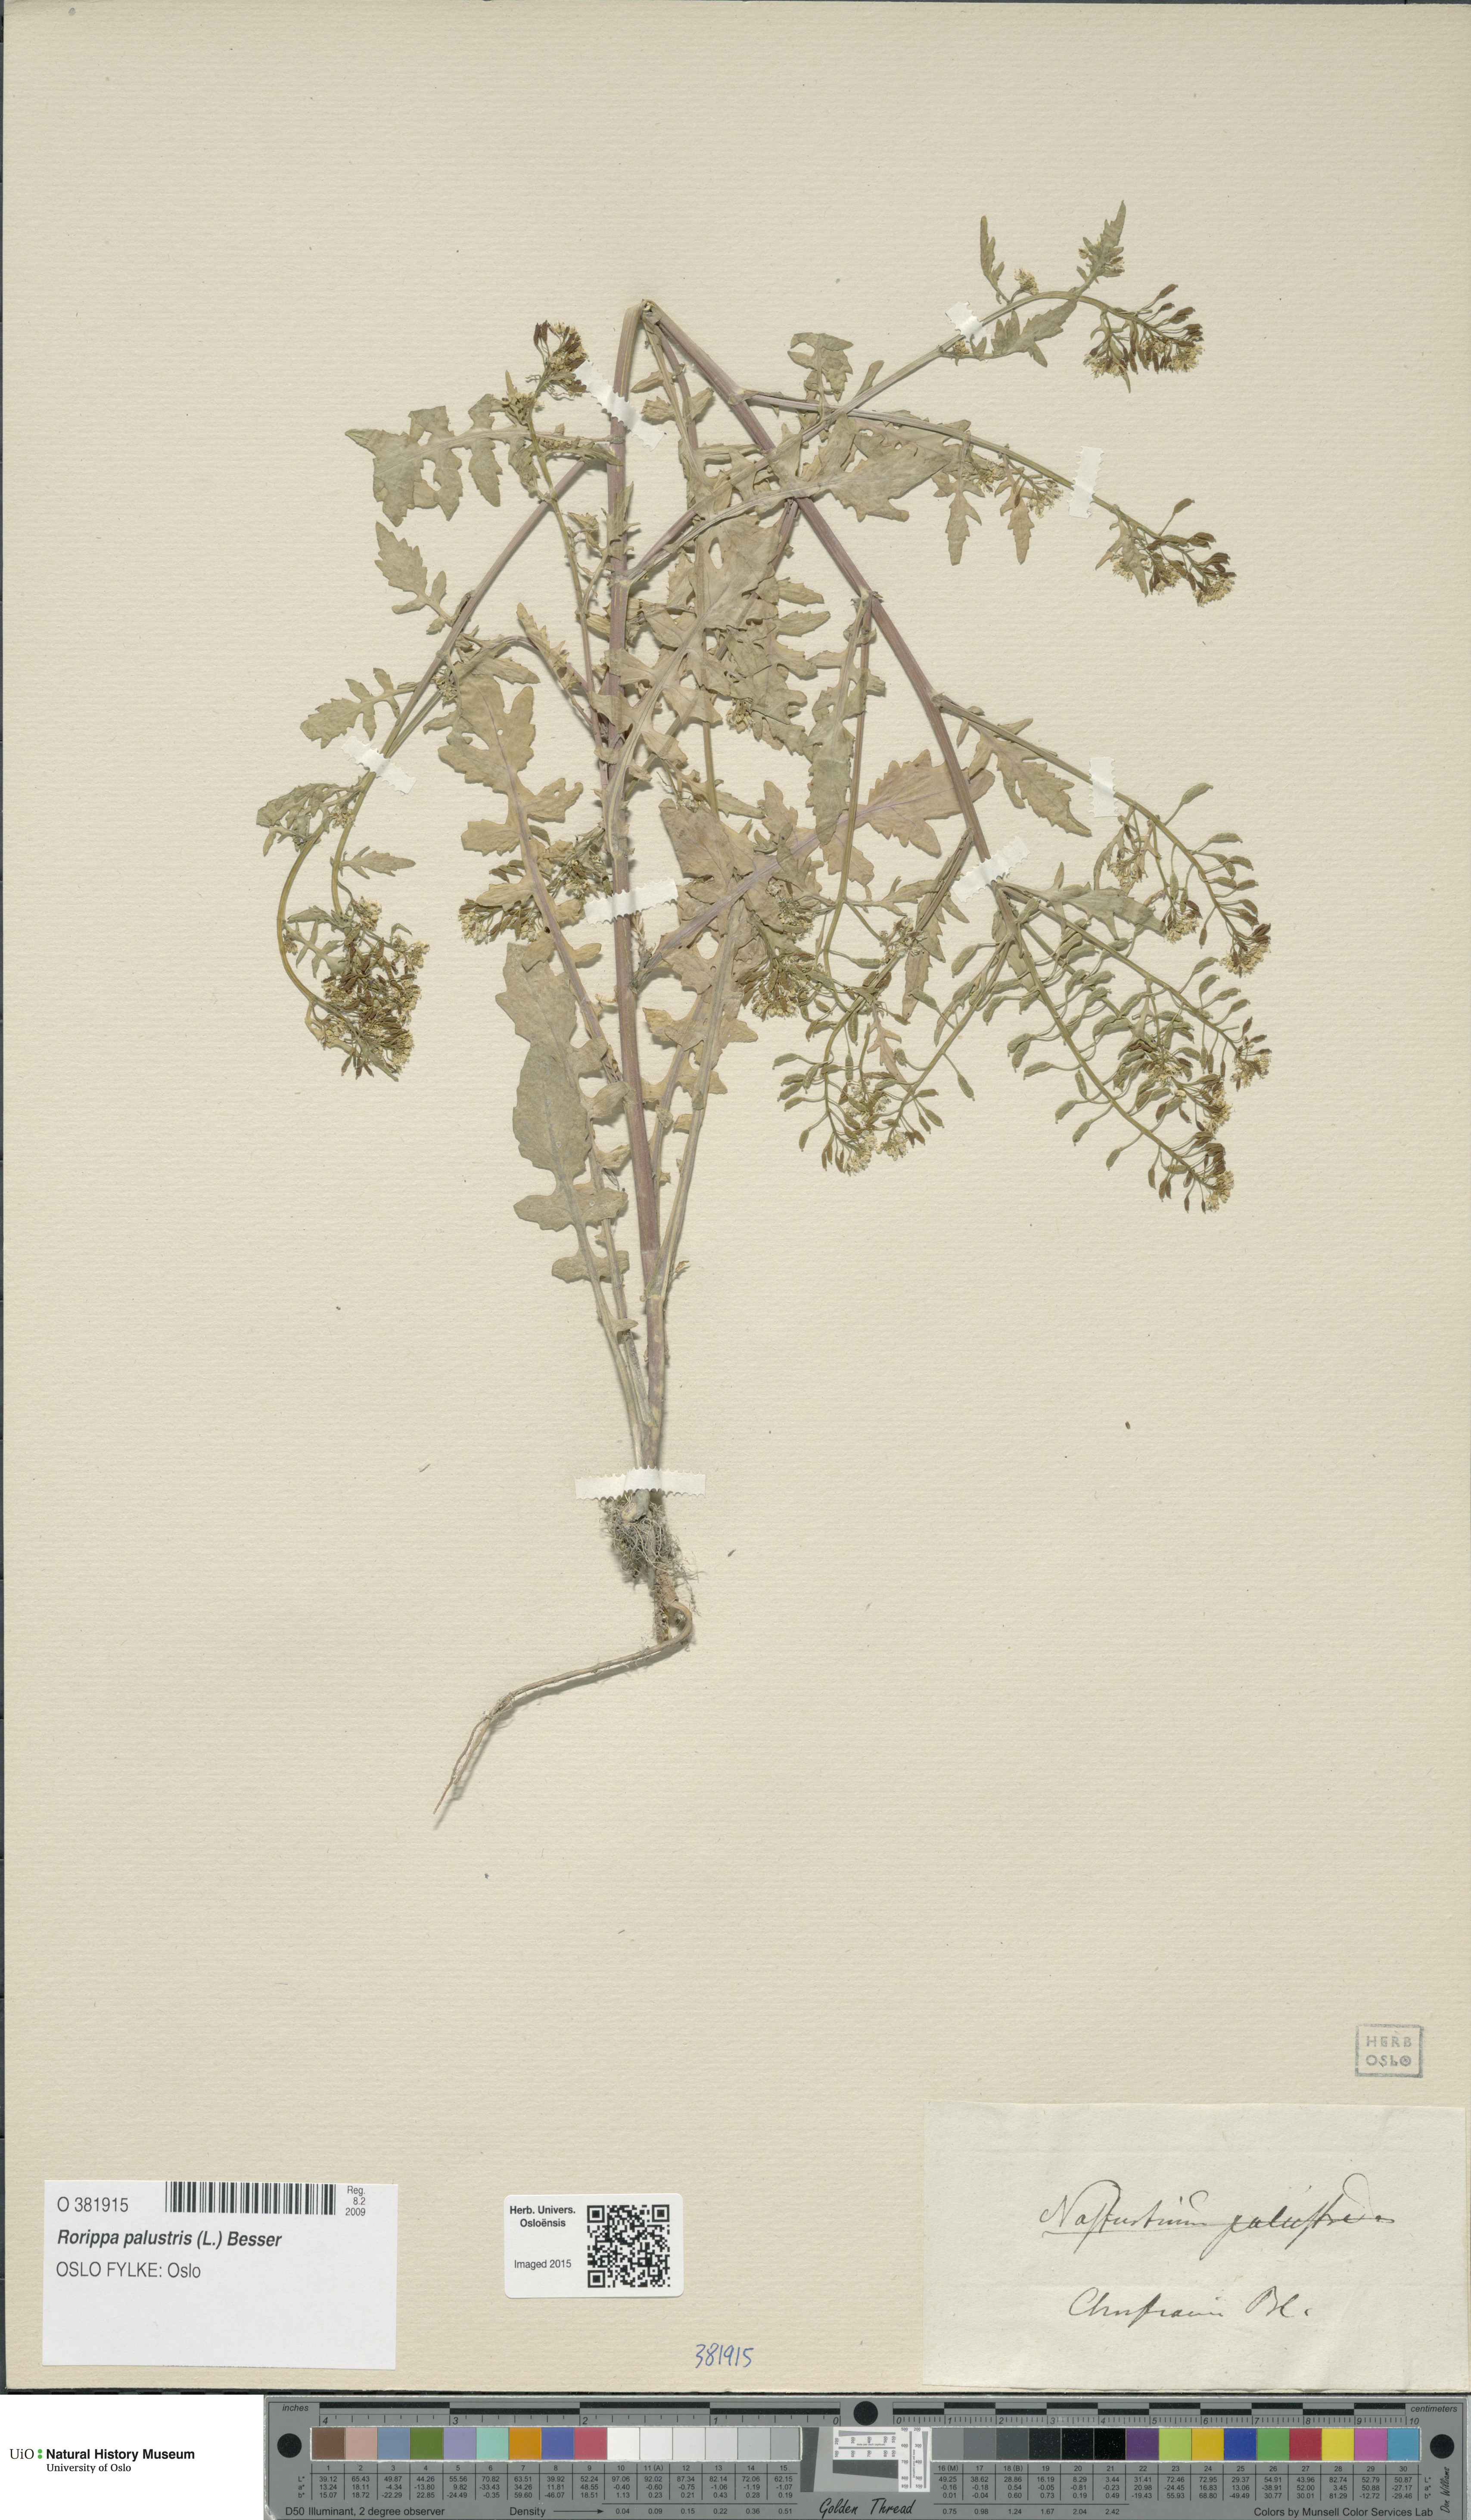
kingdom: Plantae
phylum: Tracheophyta
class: Magnoliopsida
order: Brassicales
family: Brassicaceae
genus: Rorippa
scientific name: Rorippa palustris
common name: Marsh yellow-cress
